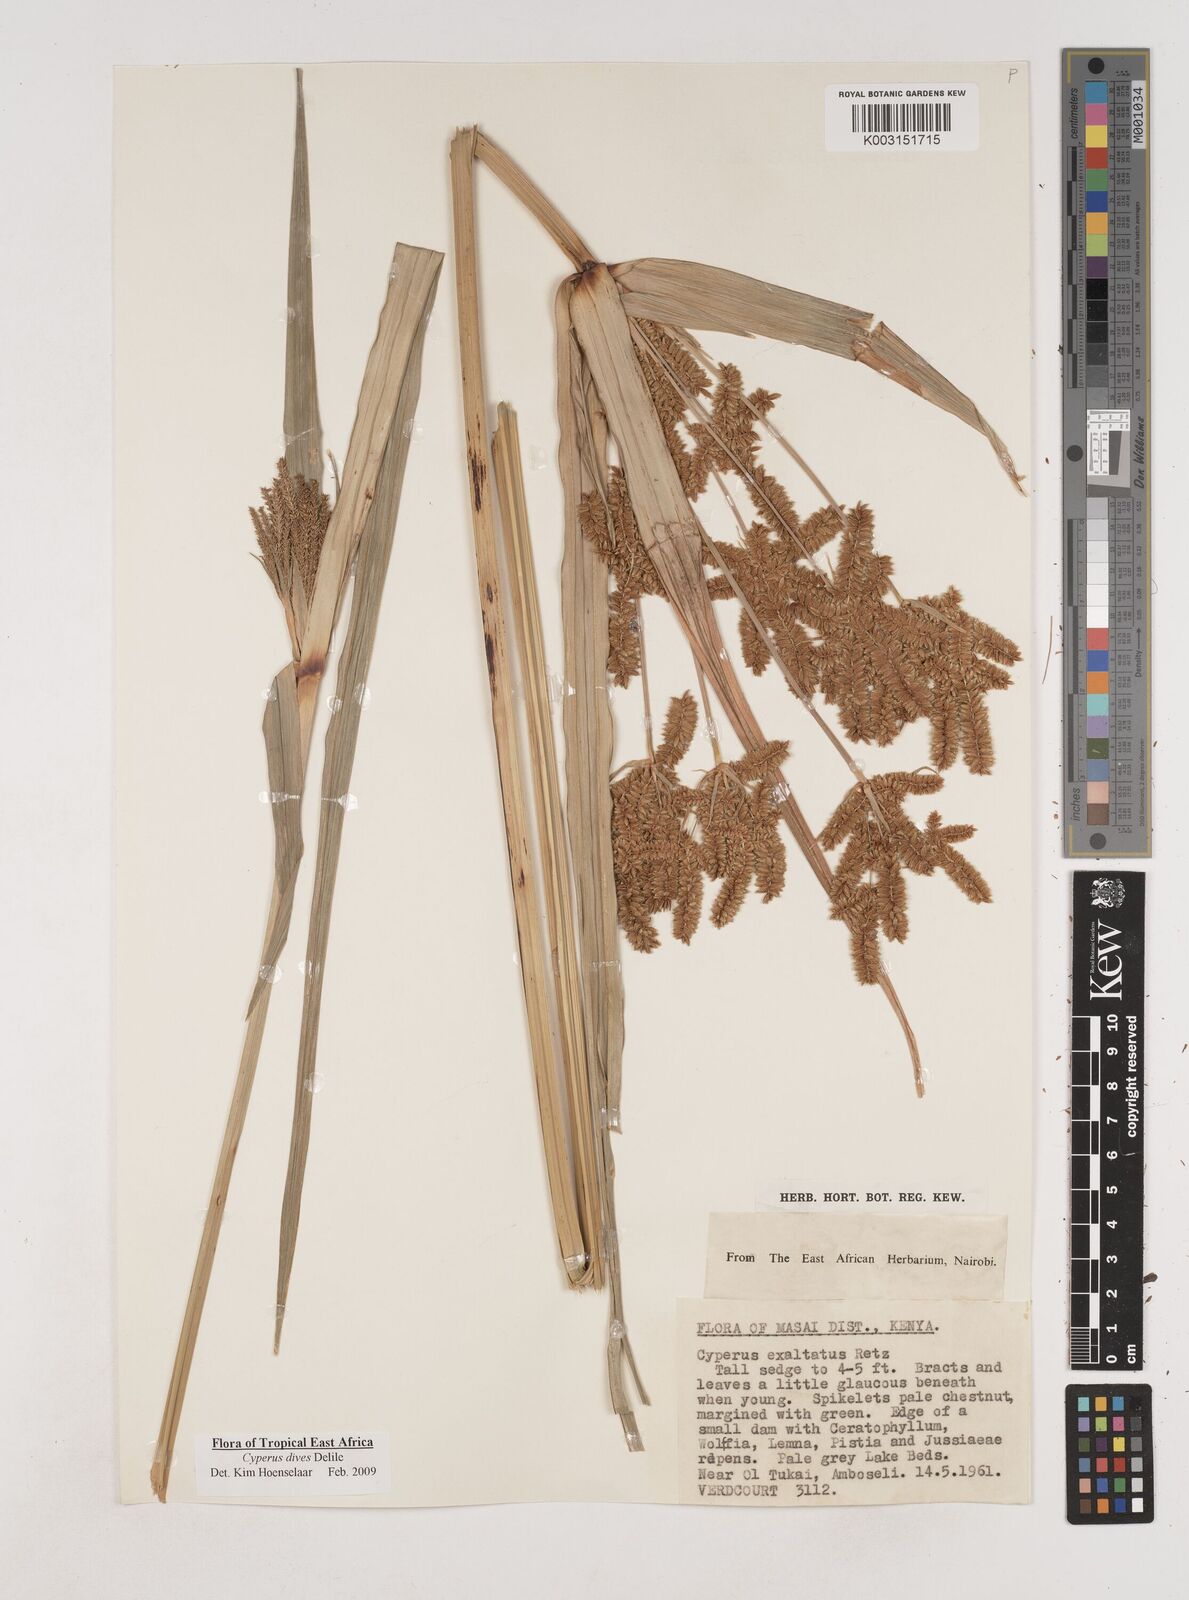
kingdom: Plantae
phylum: Tracheophyta
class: Liliopsida
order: Poales
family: Cyperaceae
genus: Cyperus
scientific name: Cyperus dives
